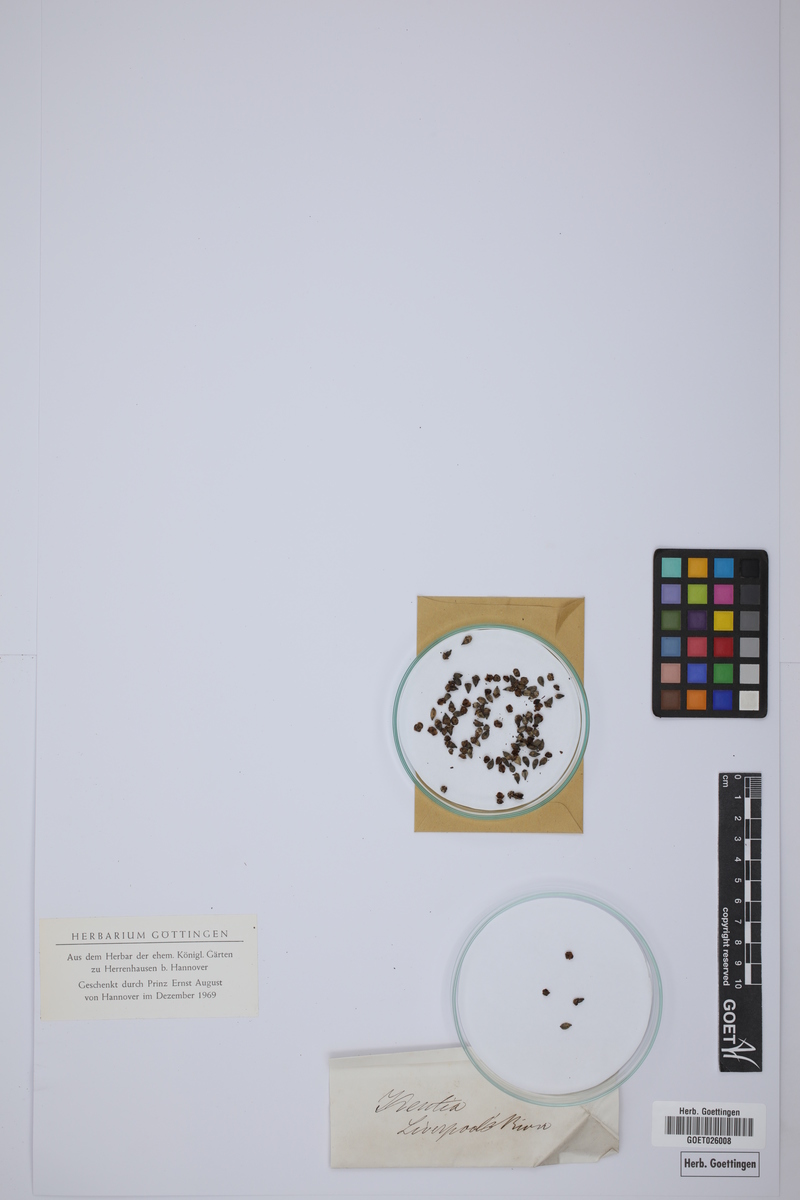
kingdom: Plantae
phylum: Tracheophyta
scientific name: Tracheophyta
